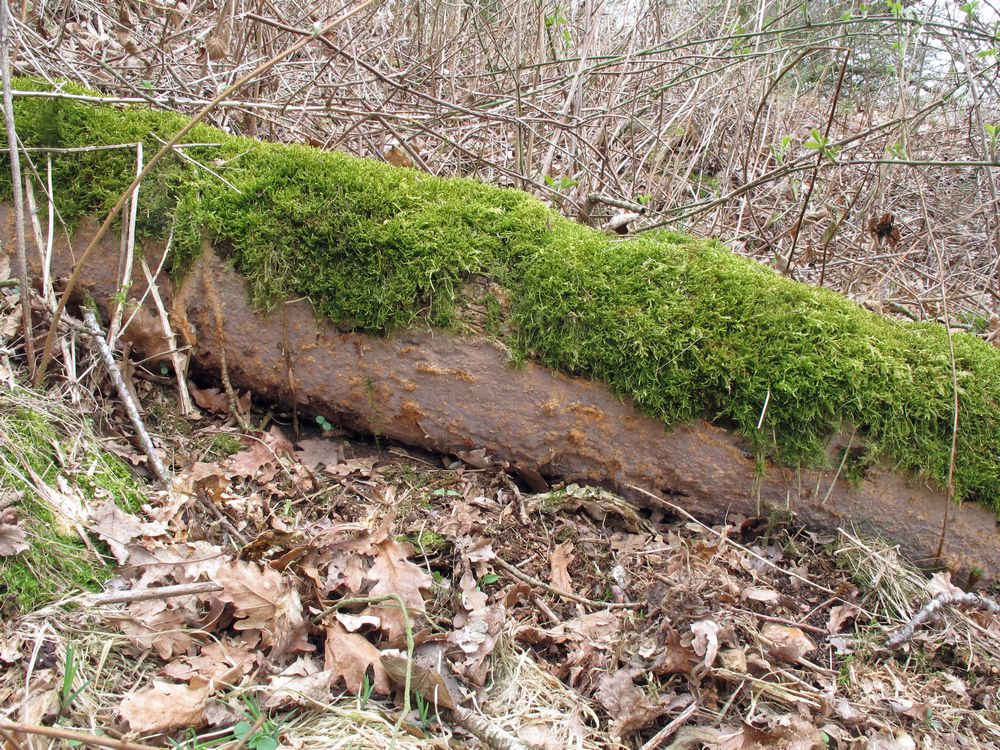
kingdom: Fungi
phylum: Basidiomycota
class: Agaricomycetes
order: Russulales
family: Peniophoraceae
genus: Scytinostroma
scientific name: Scytinostroma hemidichophyticum
